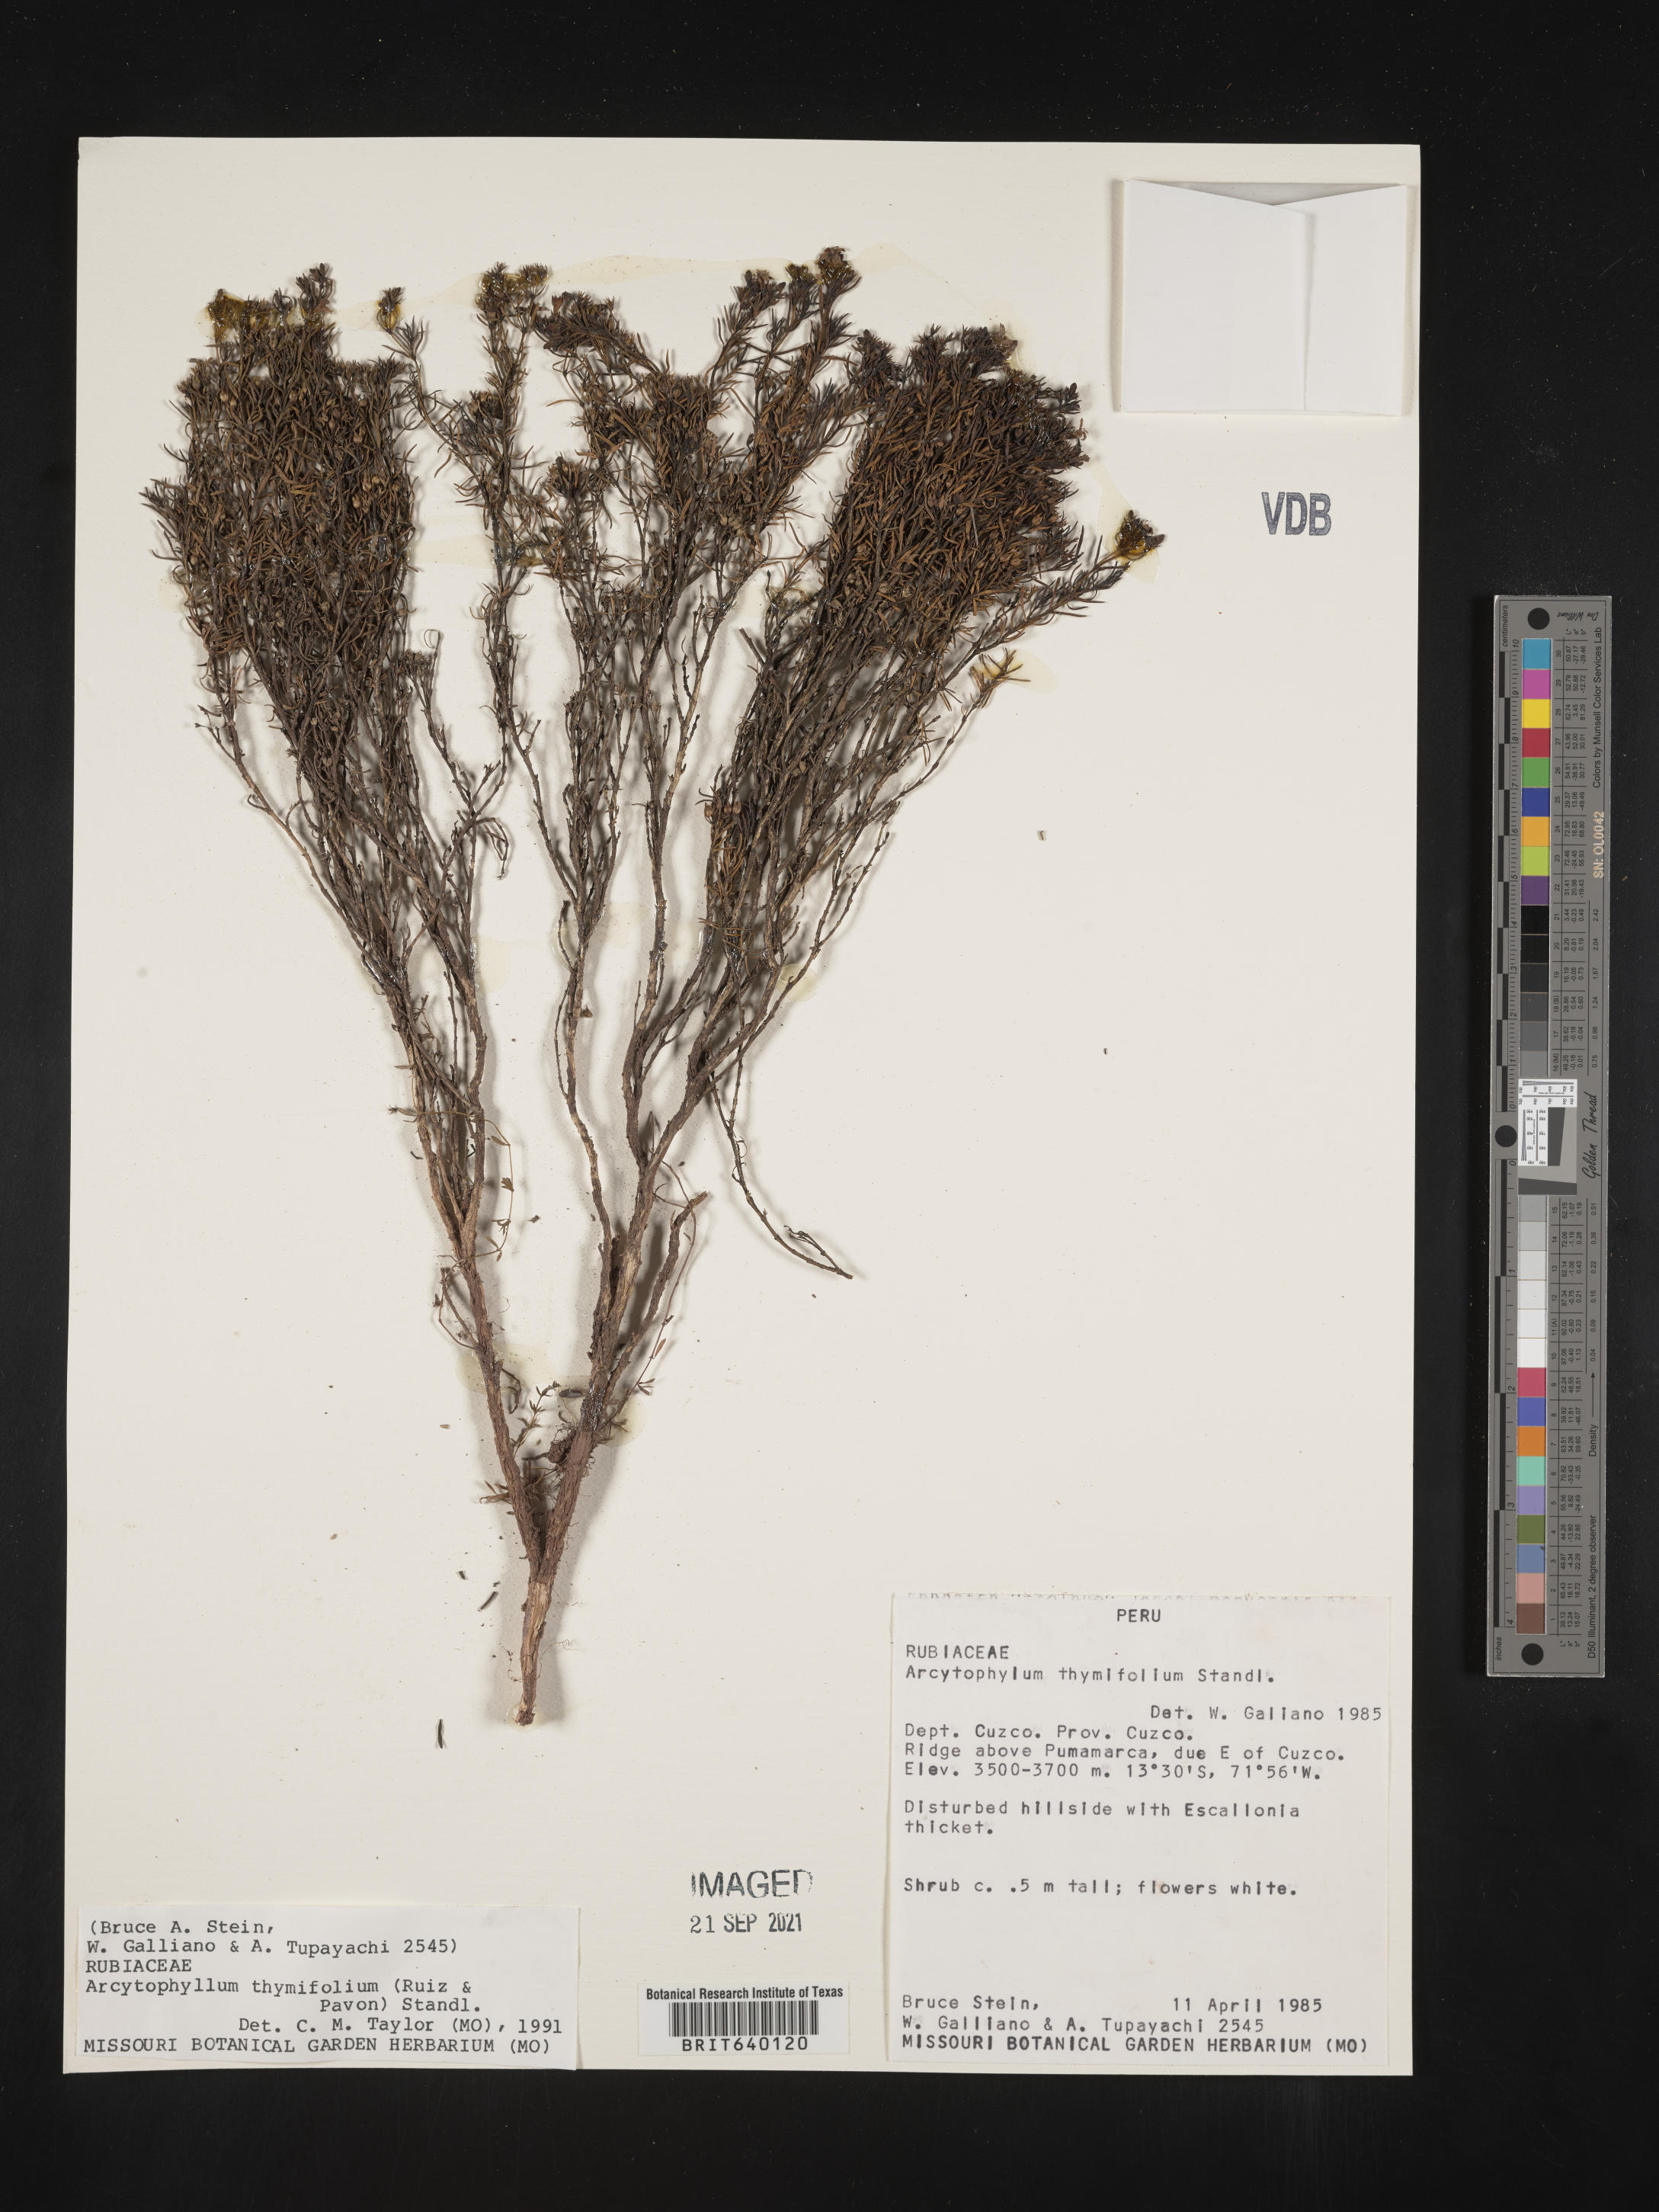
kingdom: Plantae
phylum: Tracheophyta
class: Magnoliopsida
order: Gentianales
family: Rubiaceae
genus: Arcytophyllum
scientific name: Arcytophyllum
